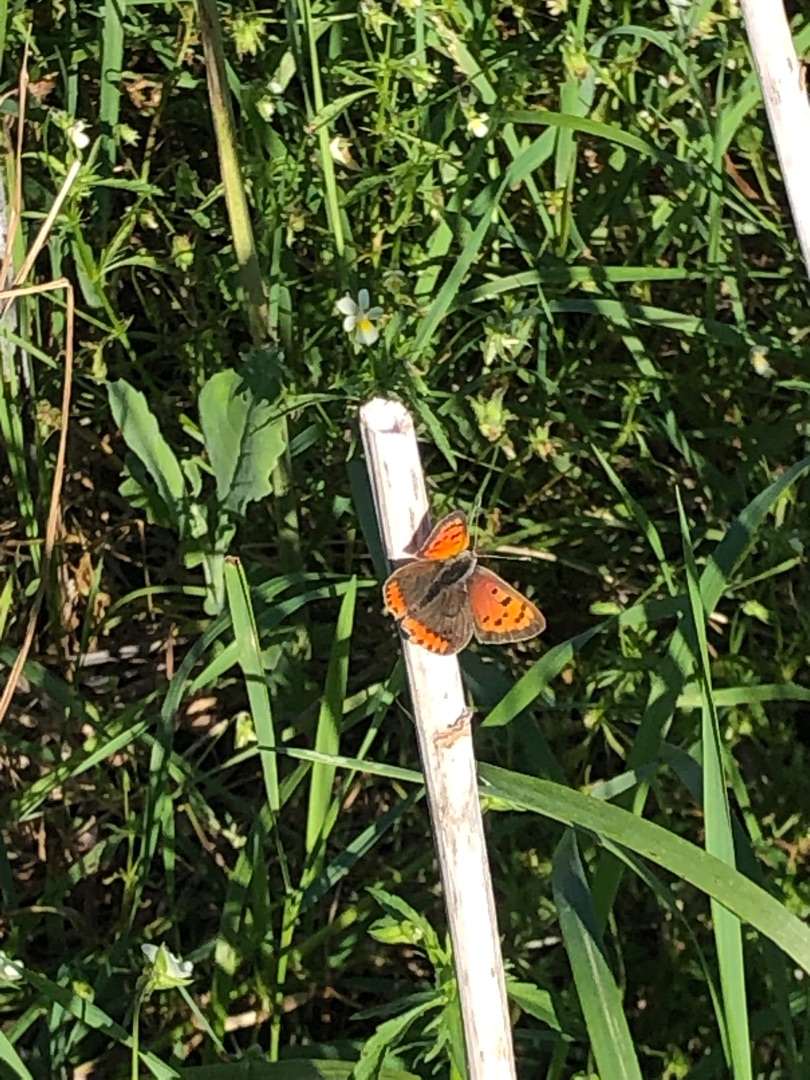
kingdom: Animalia
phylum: Arthropoda
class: Insecta
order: Lepidoptera
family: Lycaenidae
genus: Lycaena
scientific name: Lycaena phlaeas
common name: Lille ildfugl
